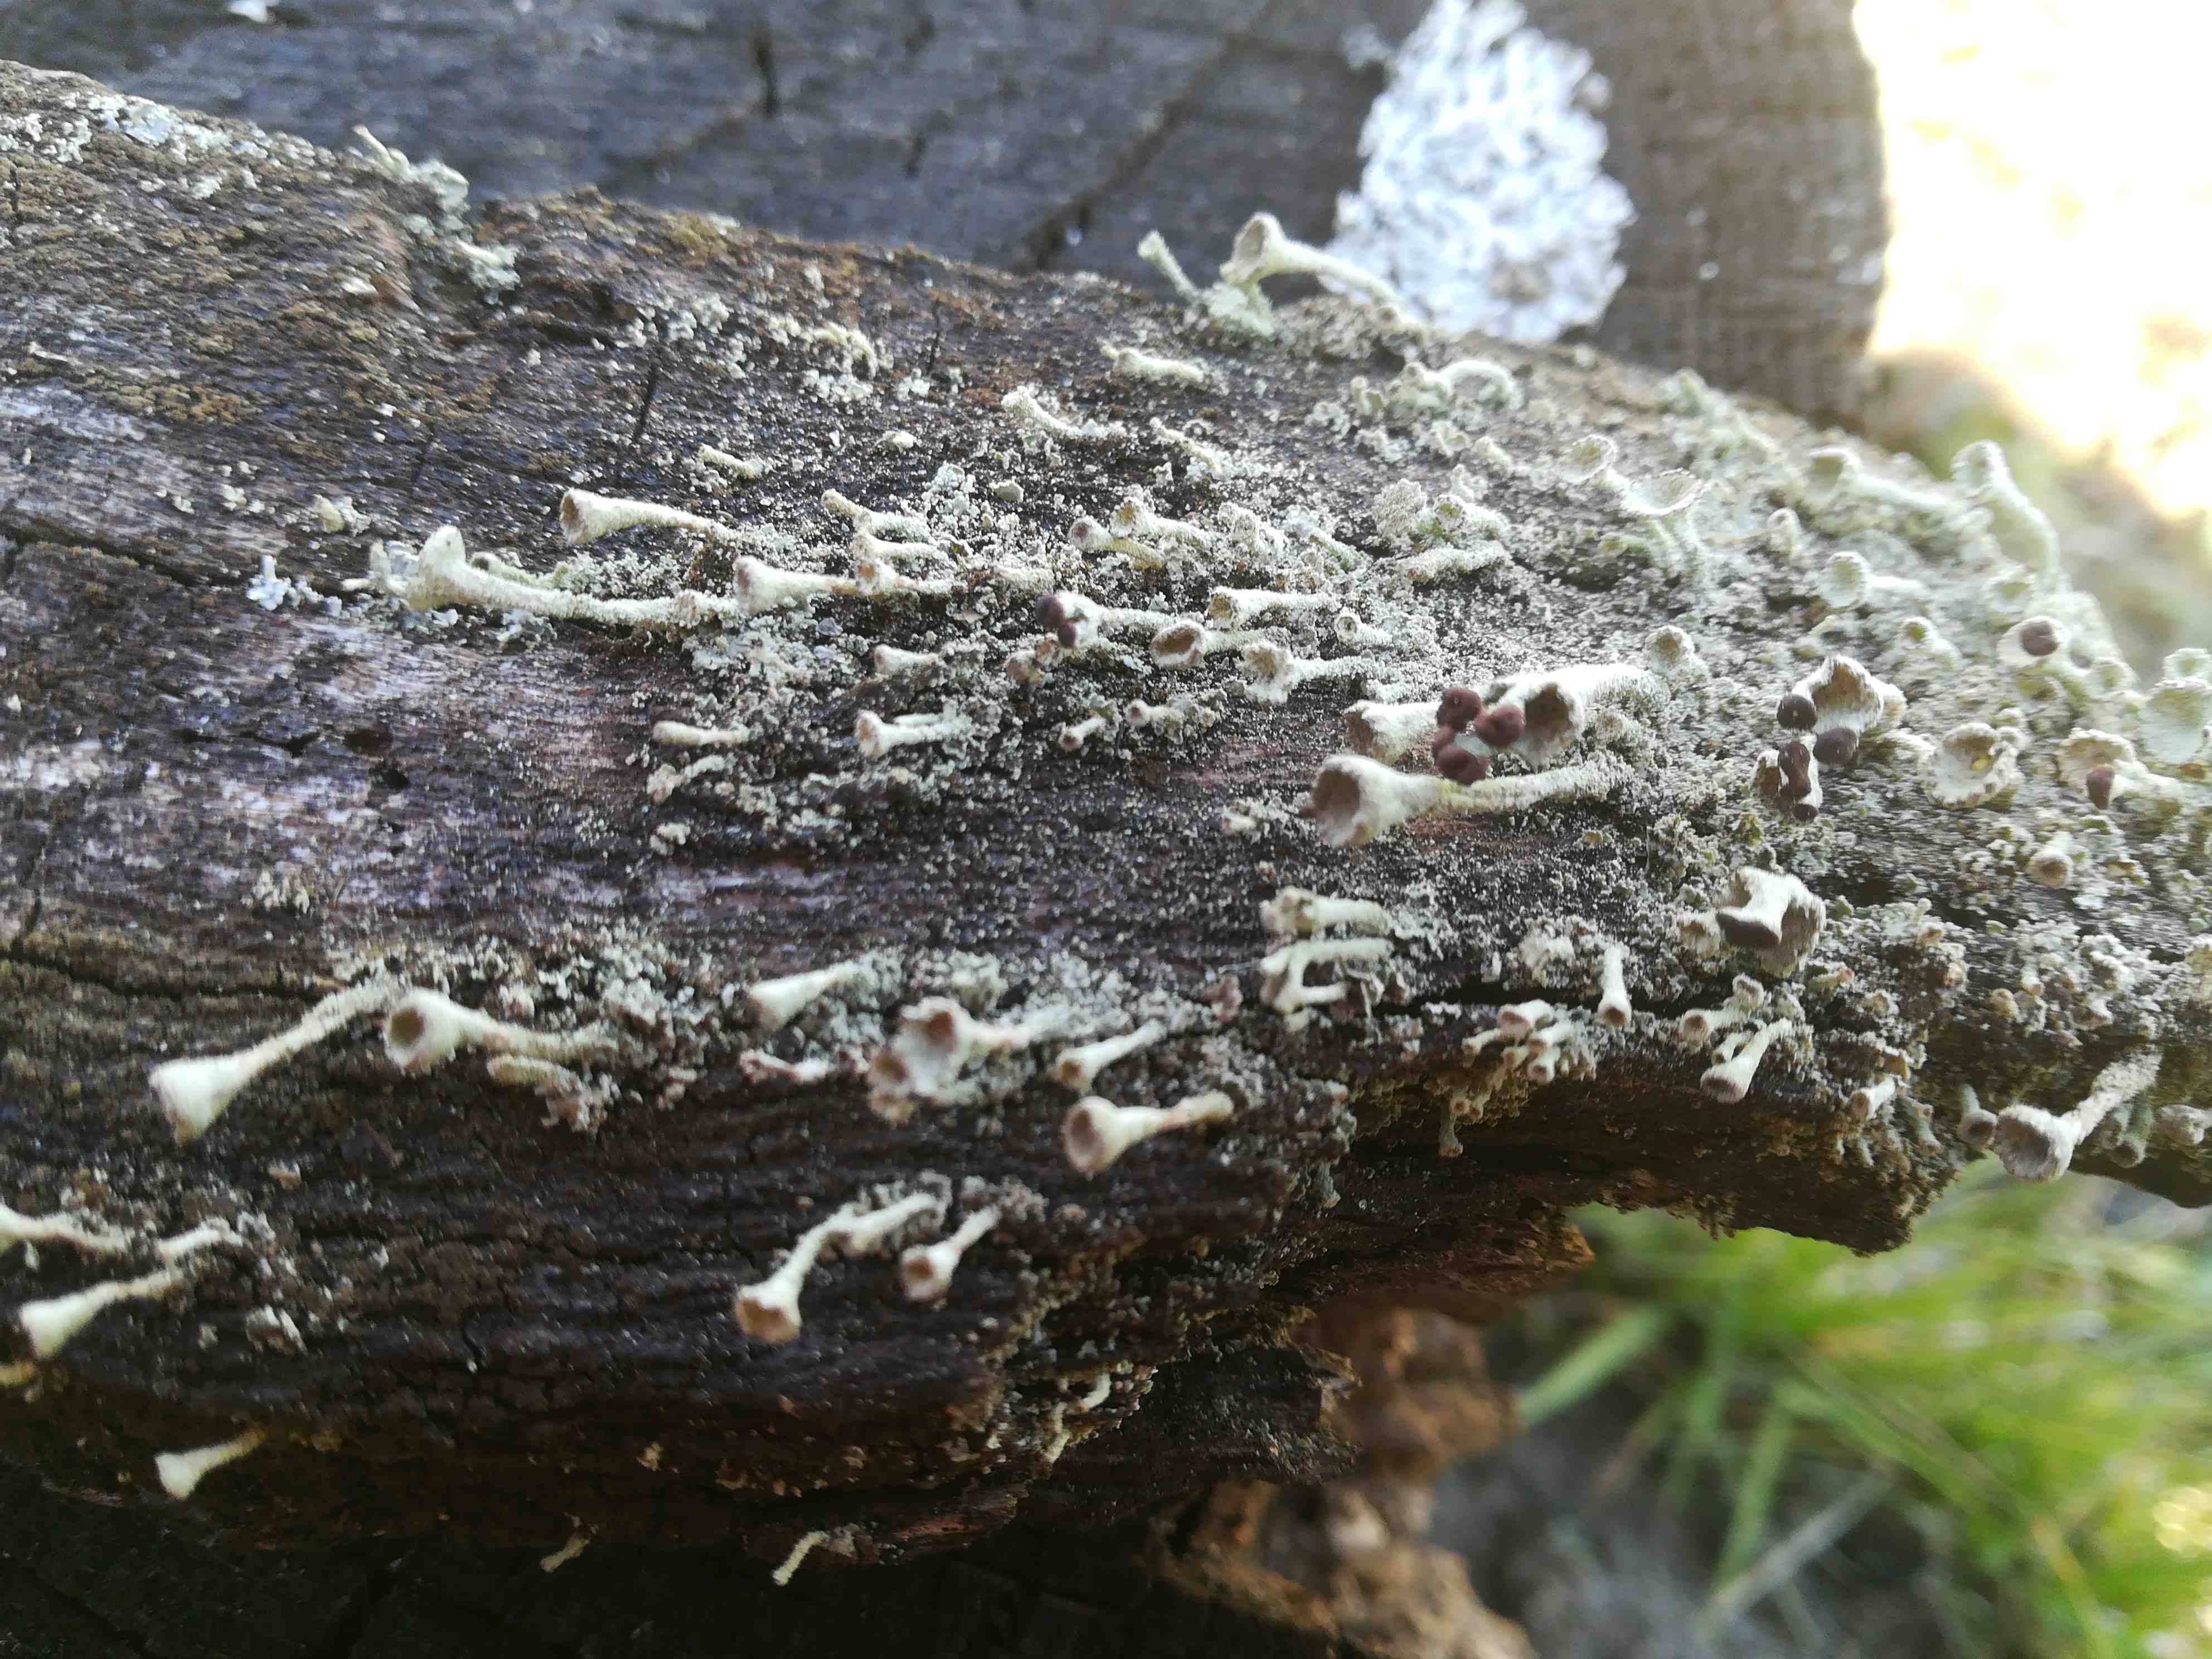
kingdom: Fungi
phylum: Ascomycota
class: Lecanoromycetes
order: Lecanorales
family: Cladoniaceae
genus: Cladonia
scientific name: Cladonia
